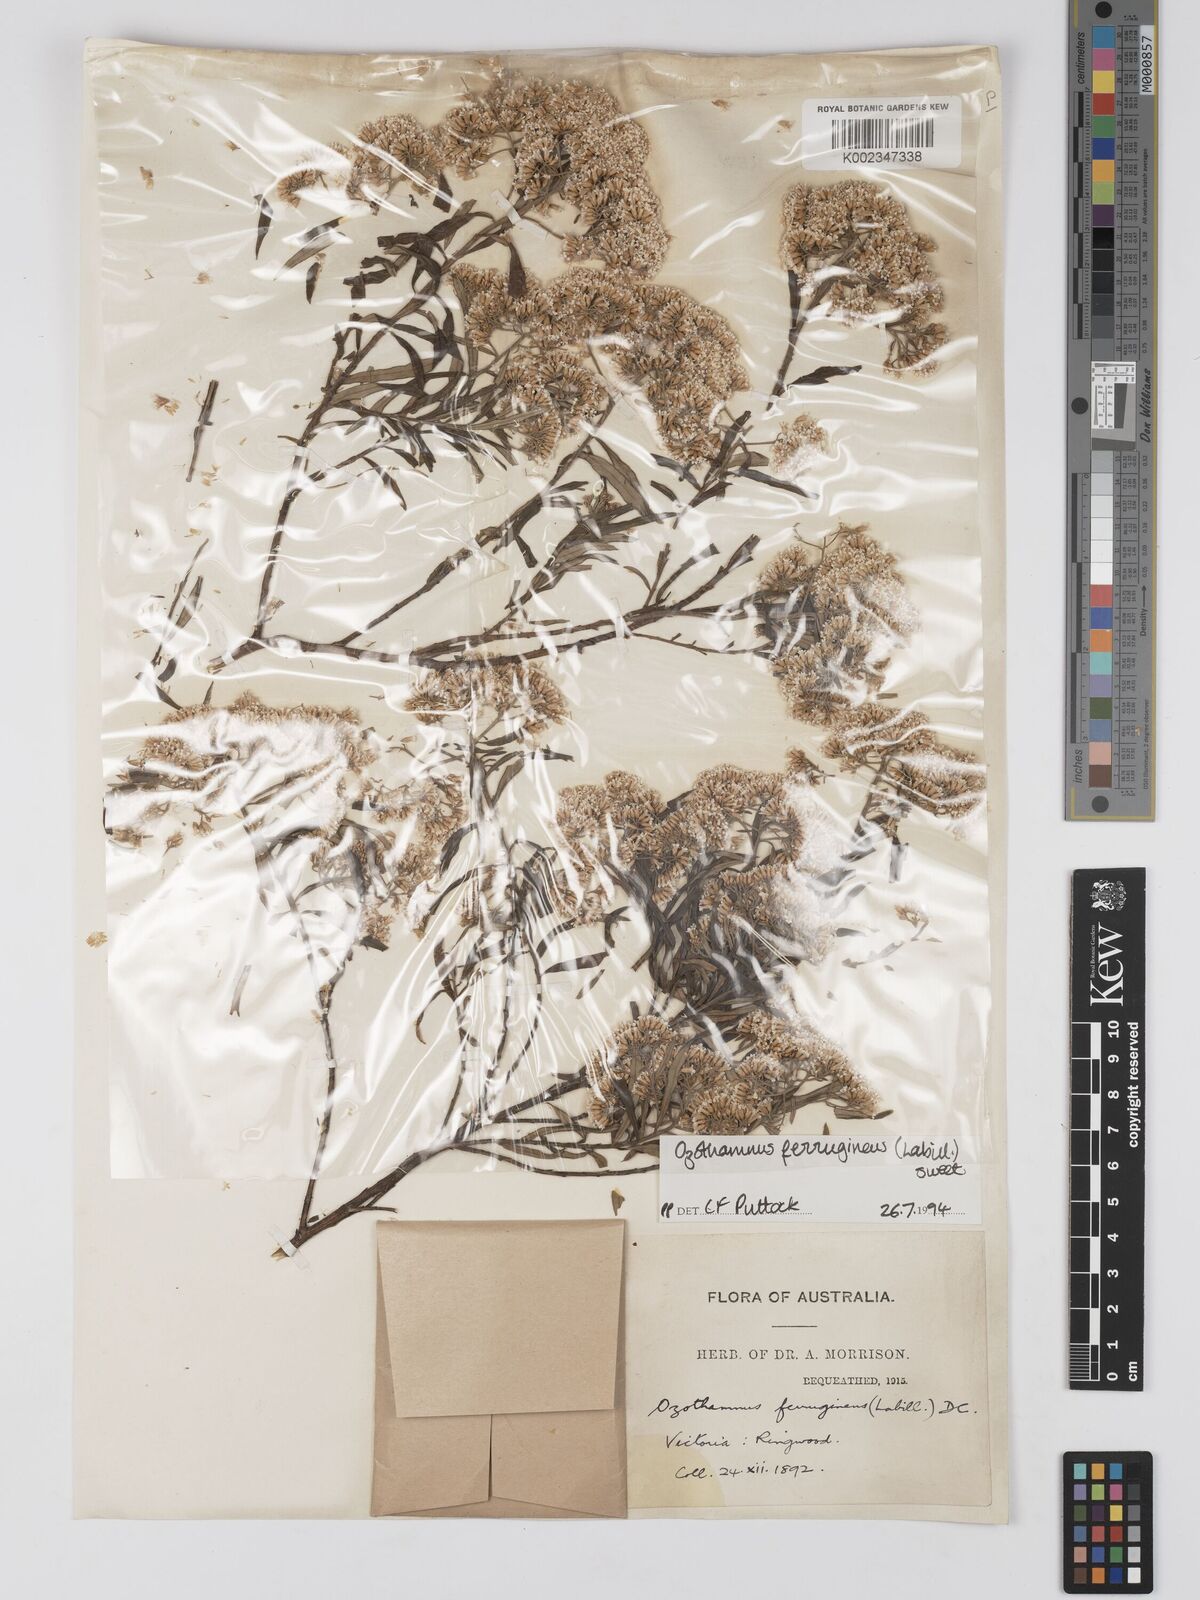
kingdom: Plantae
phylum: Tracheophyta
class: Magnoliopsida
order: Asterales
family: Asteraceae
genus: Ozothamnus
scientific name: Ozothamnus
